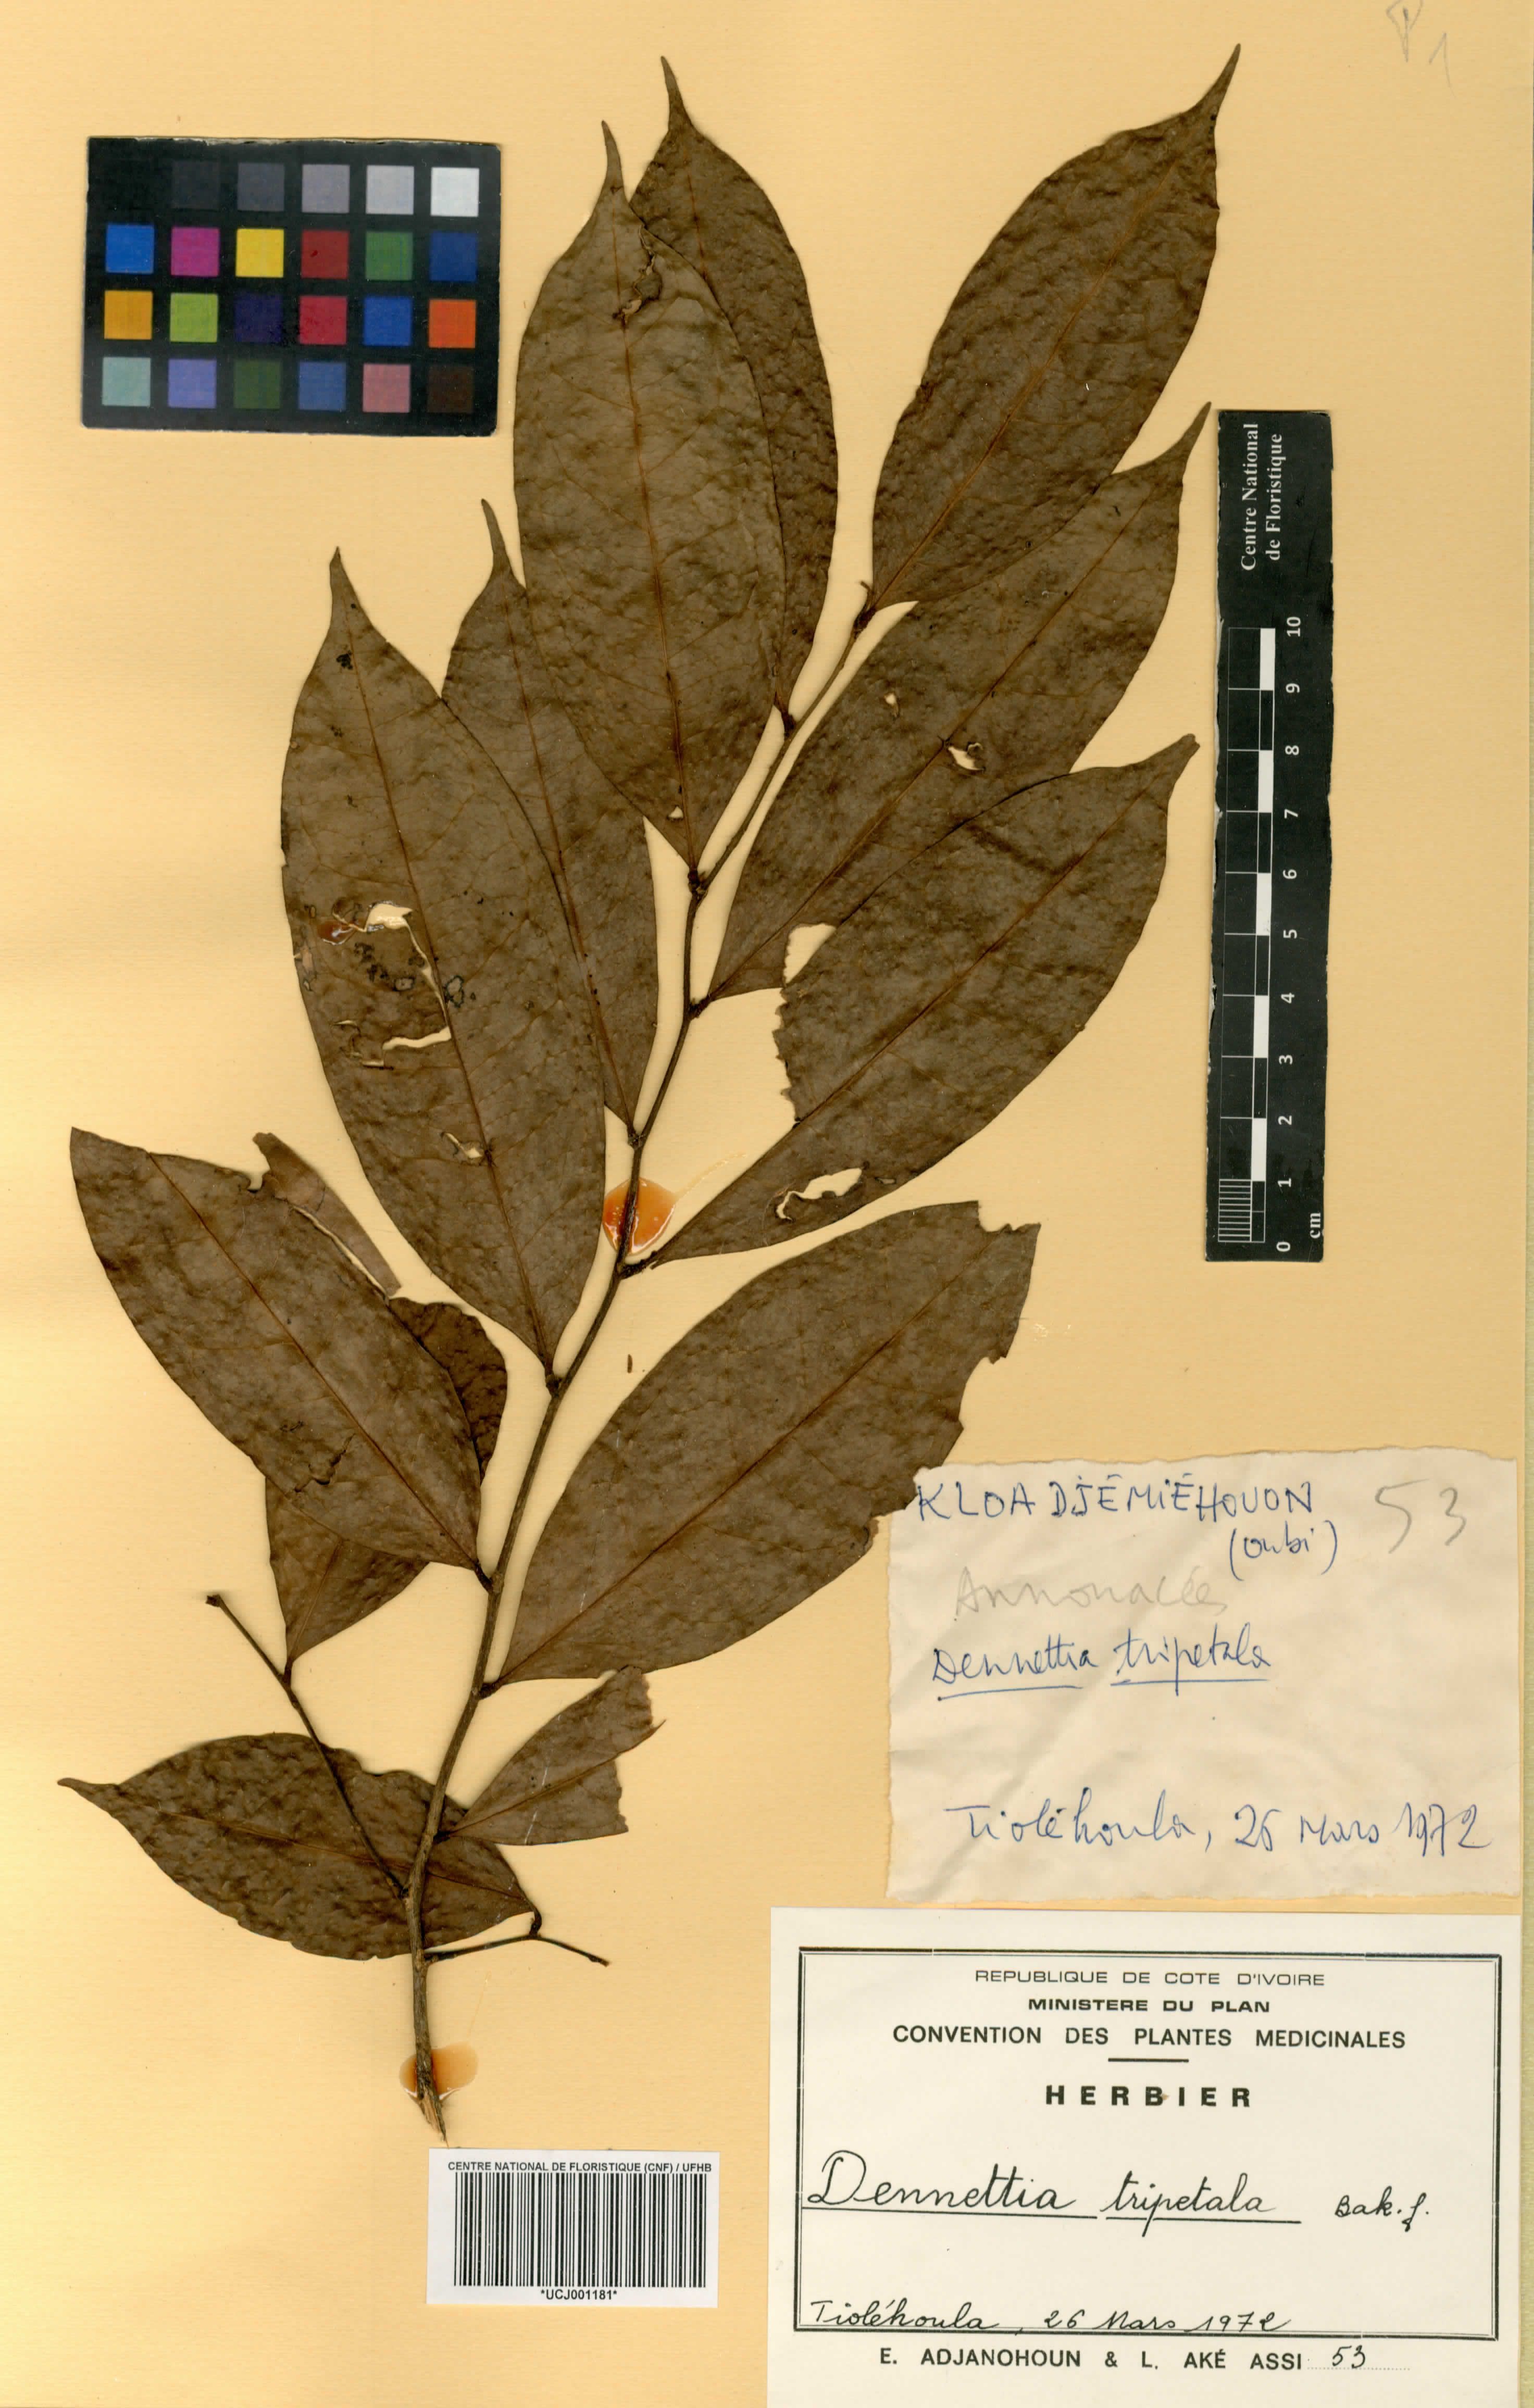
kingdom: Plantae
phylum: Tracheophyta
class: Magnoliopsida
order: Magnoliales
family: Annonaceae
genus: Uvariopsis
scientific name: Uvariopsis tripetala
